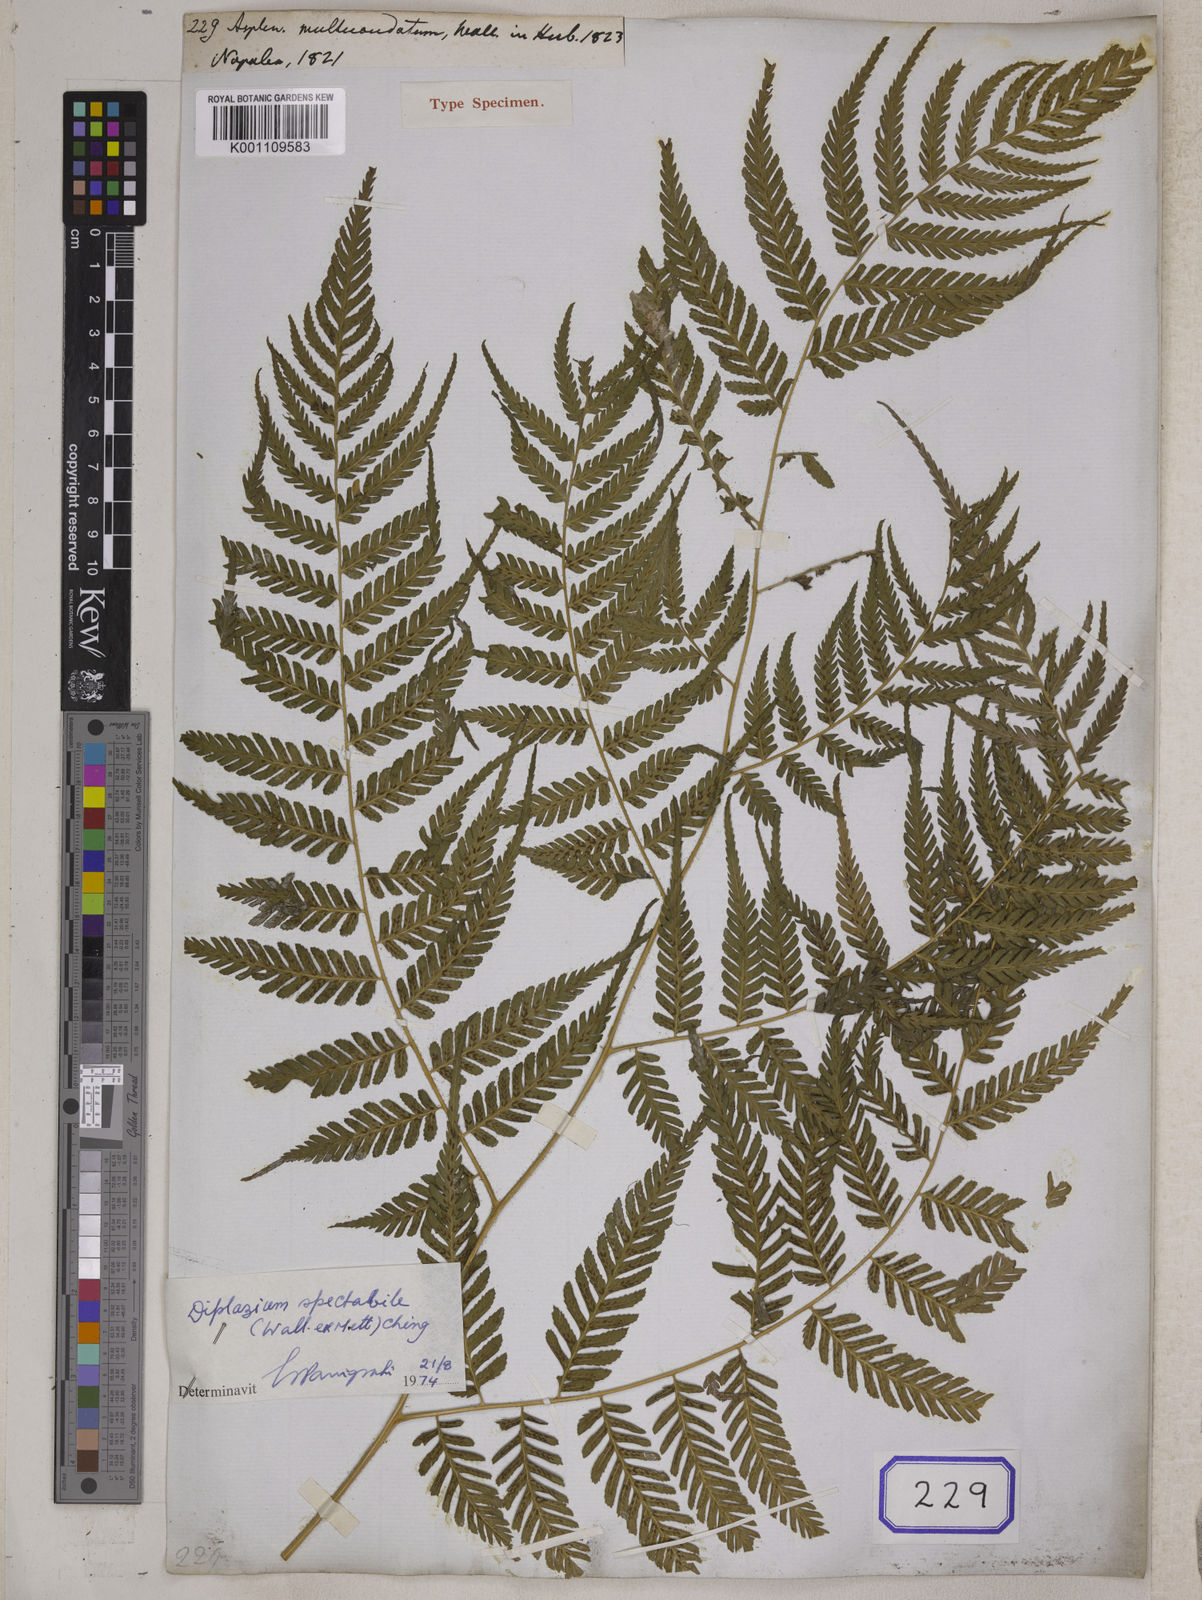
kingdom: Plantae
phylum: Tracheophyta
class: Polypodiopsida
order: Polypodiales
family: Athyriaceae
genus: Diplazium
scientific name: Diplazium pseudosetigerum
